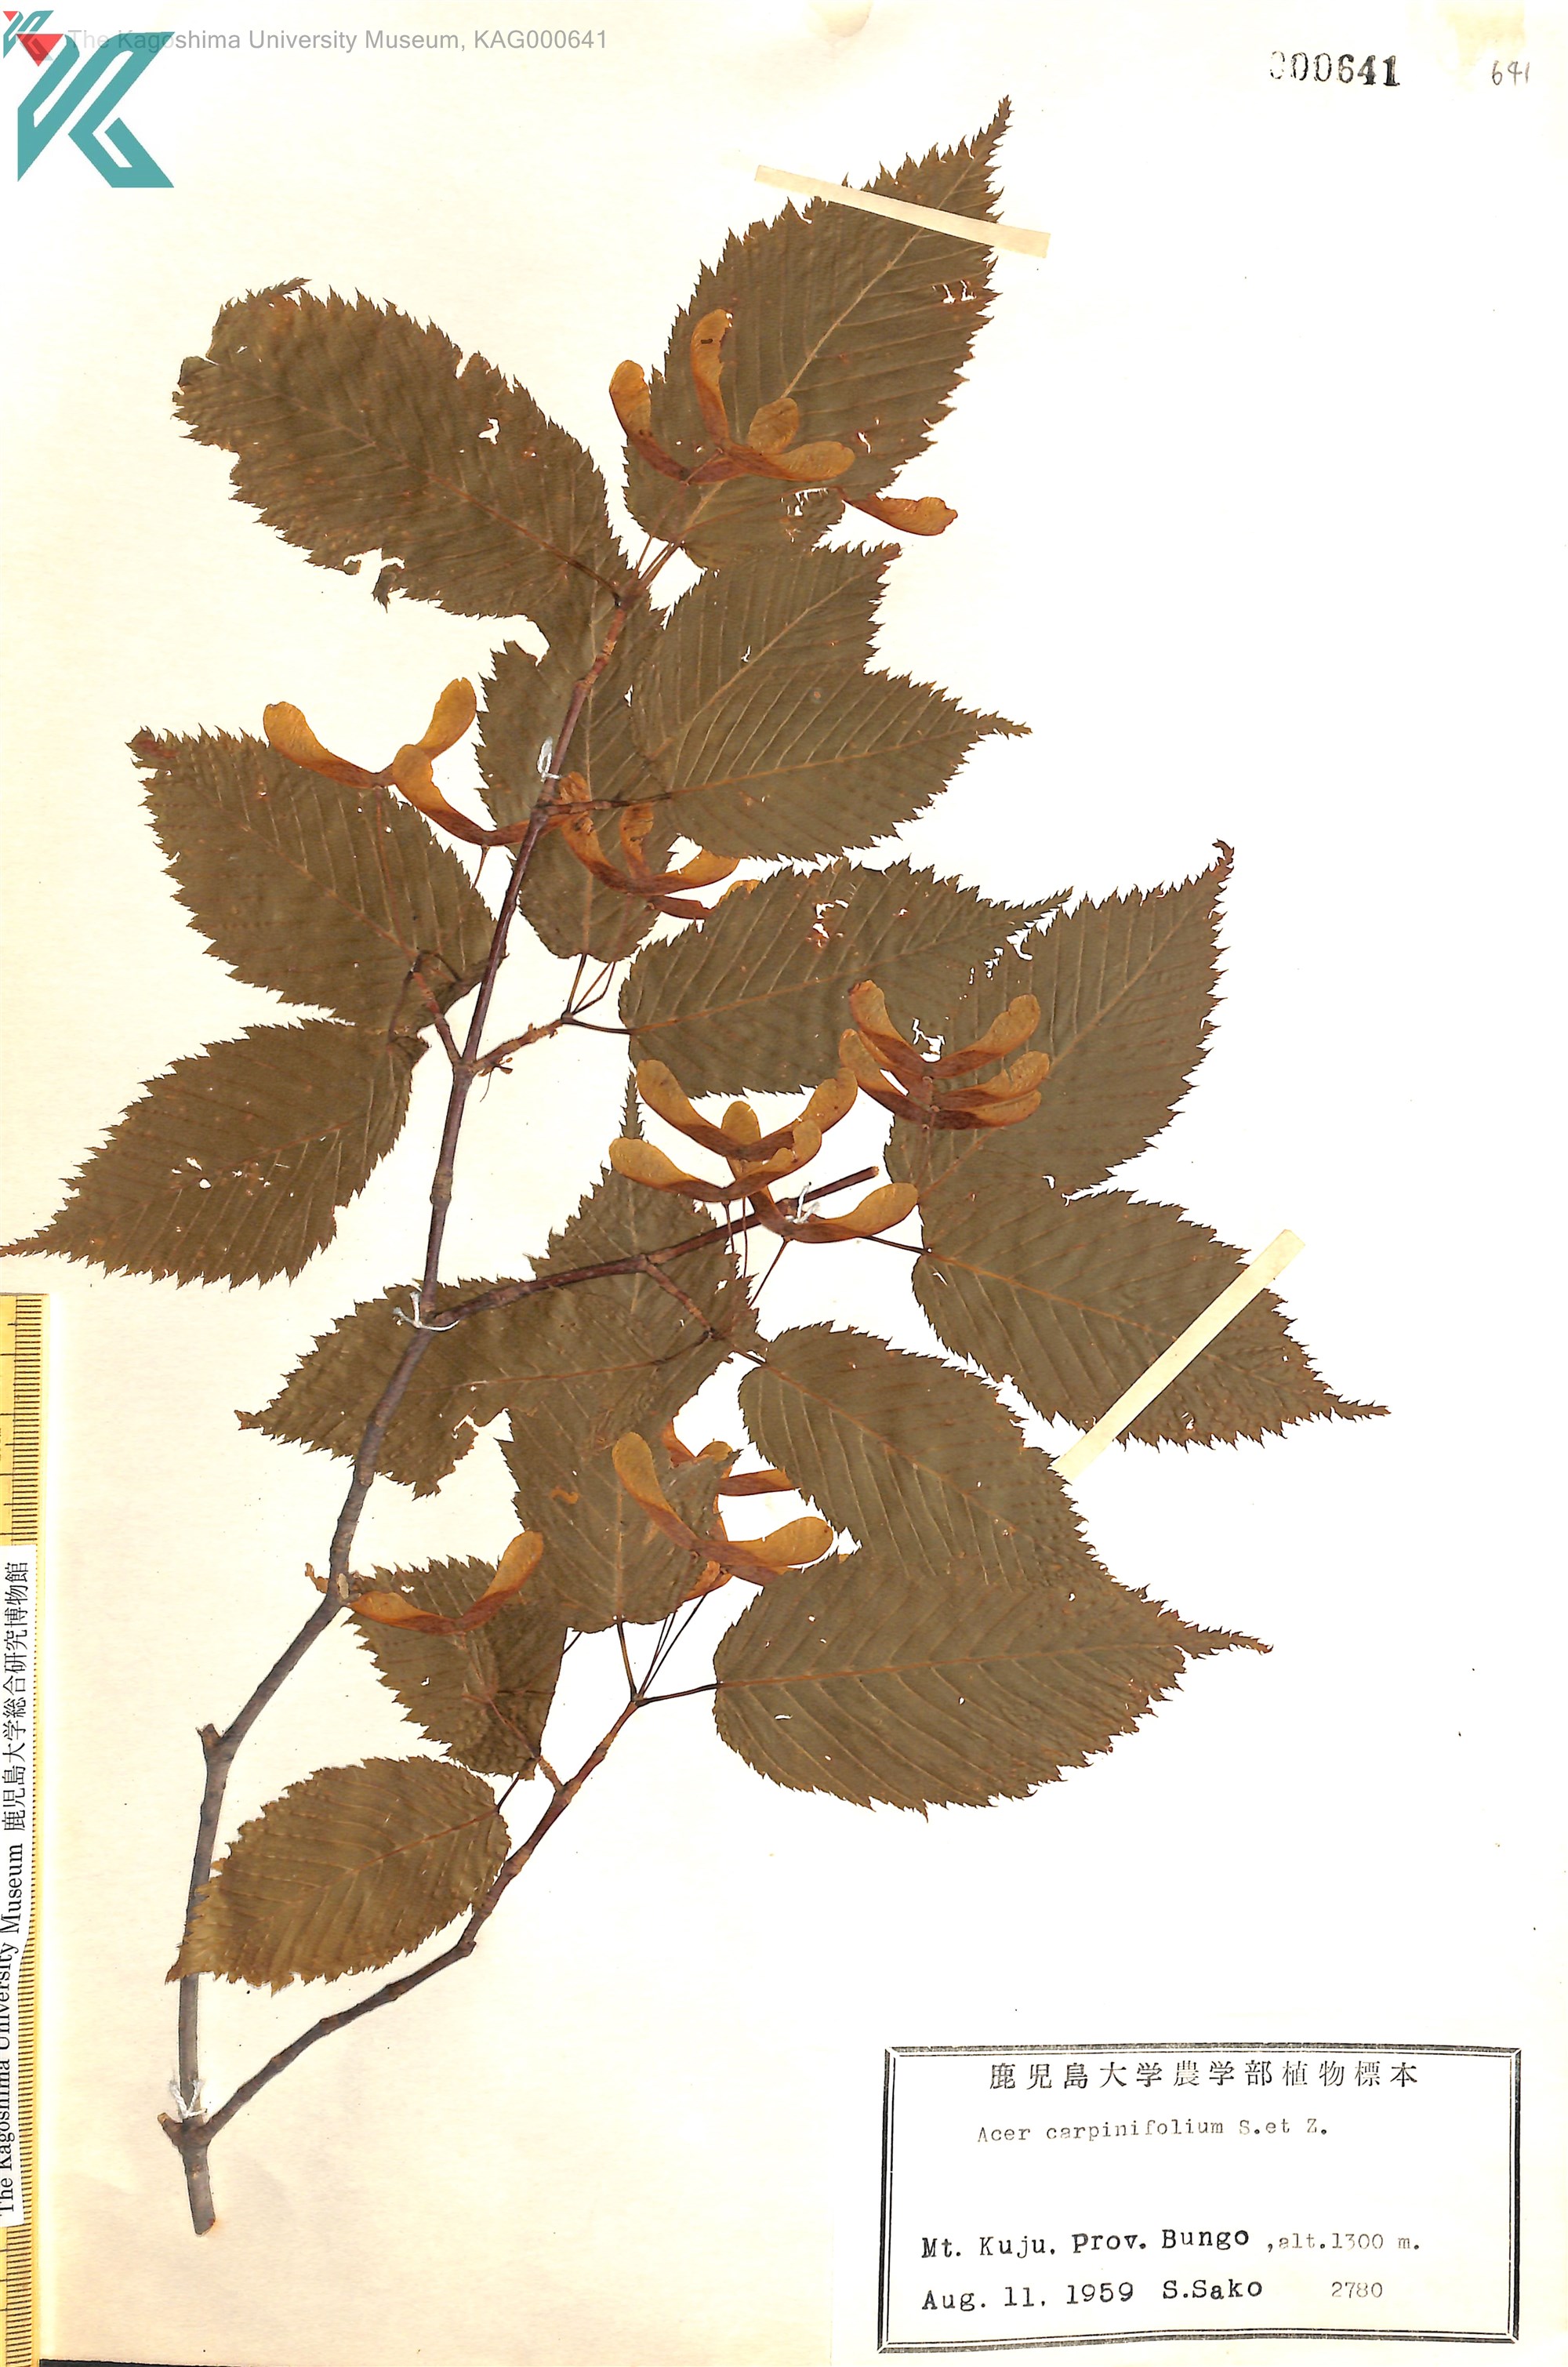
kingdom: Plantae
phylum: Tracheophyta
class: Magnoliopsida
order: Sapindales
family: Sapindaceae
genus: Acer
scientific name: Acer carpinifolium
